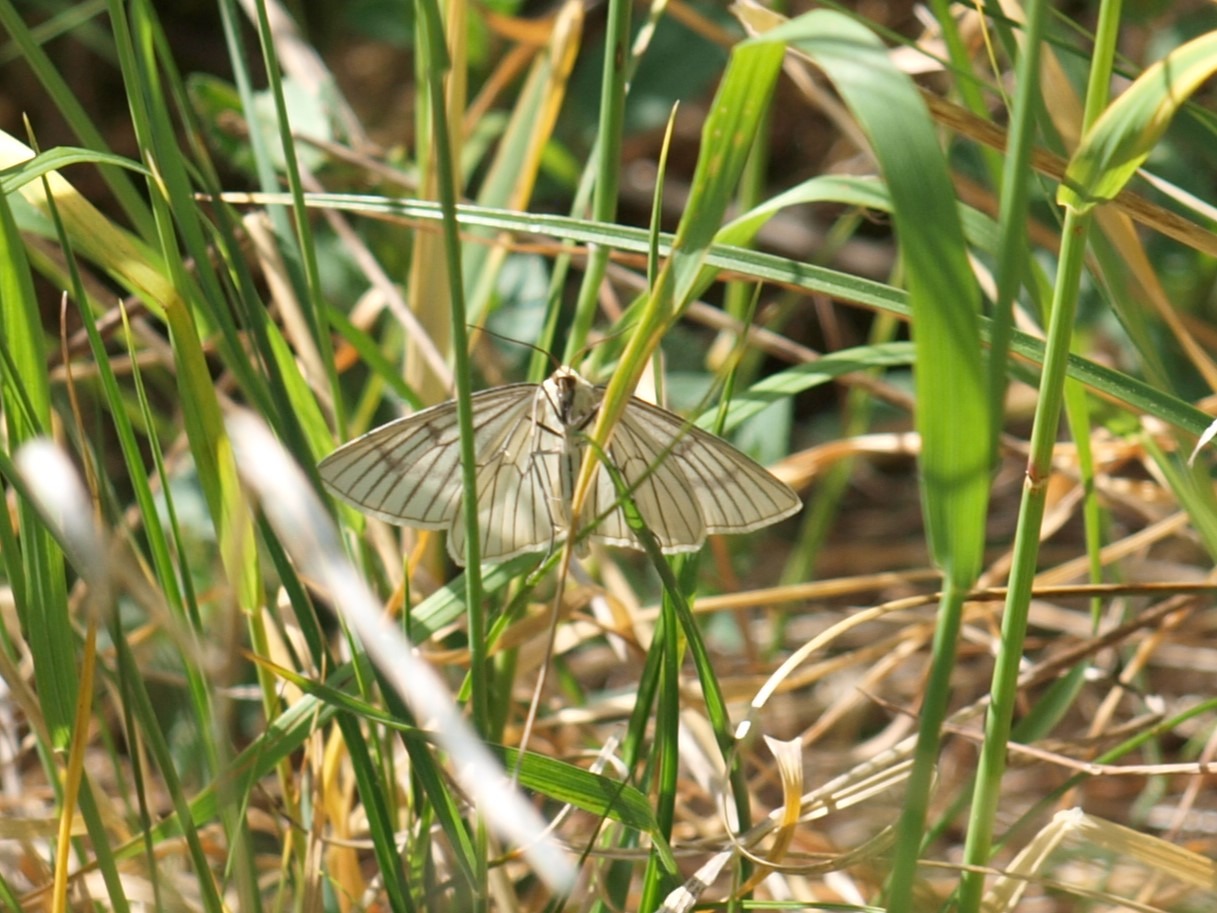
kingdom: Animalia
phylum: Arthropoda
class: Insecta
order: Lepidoptera
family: Geometridae
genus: Siona
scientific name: Siona lineata
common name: Hvidvingemåler
